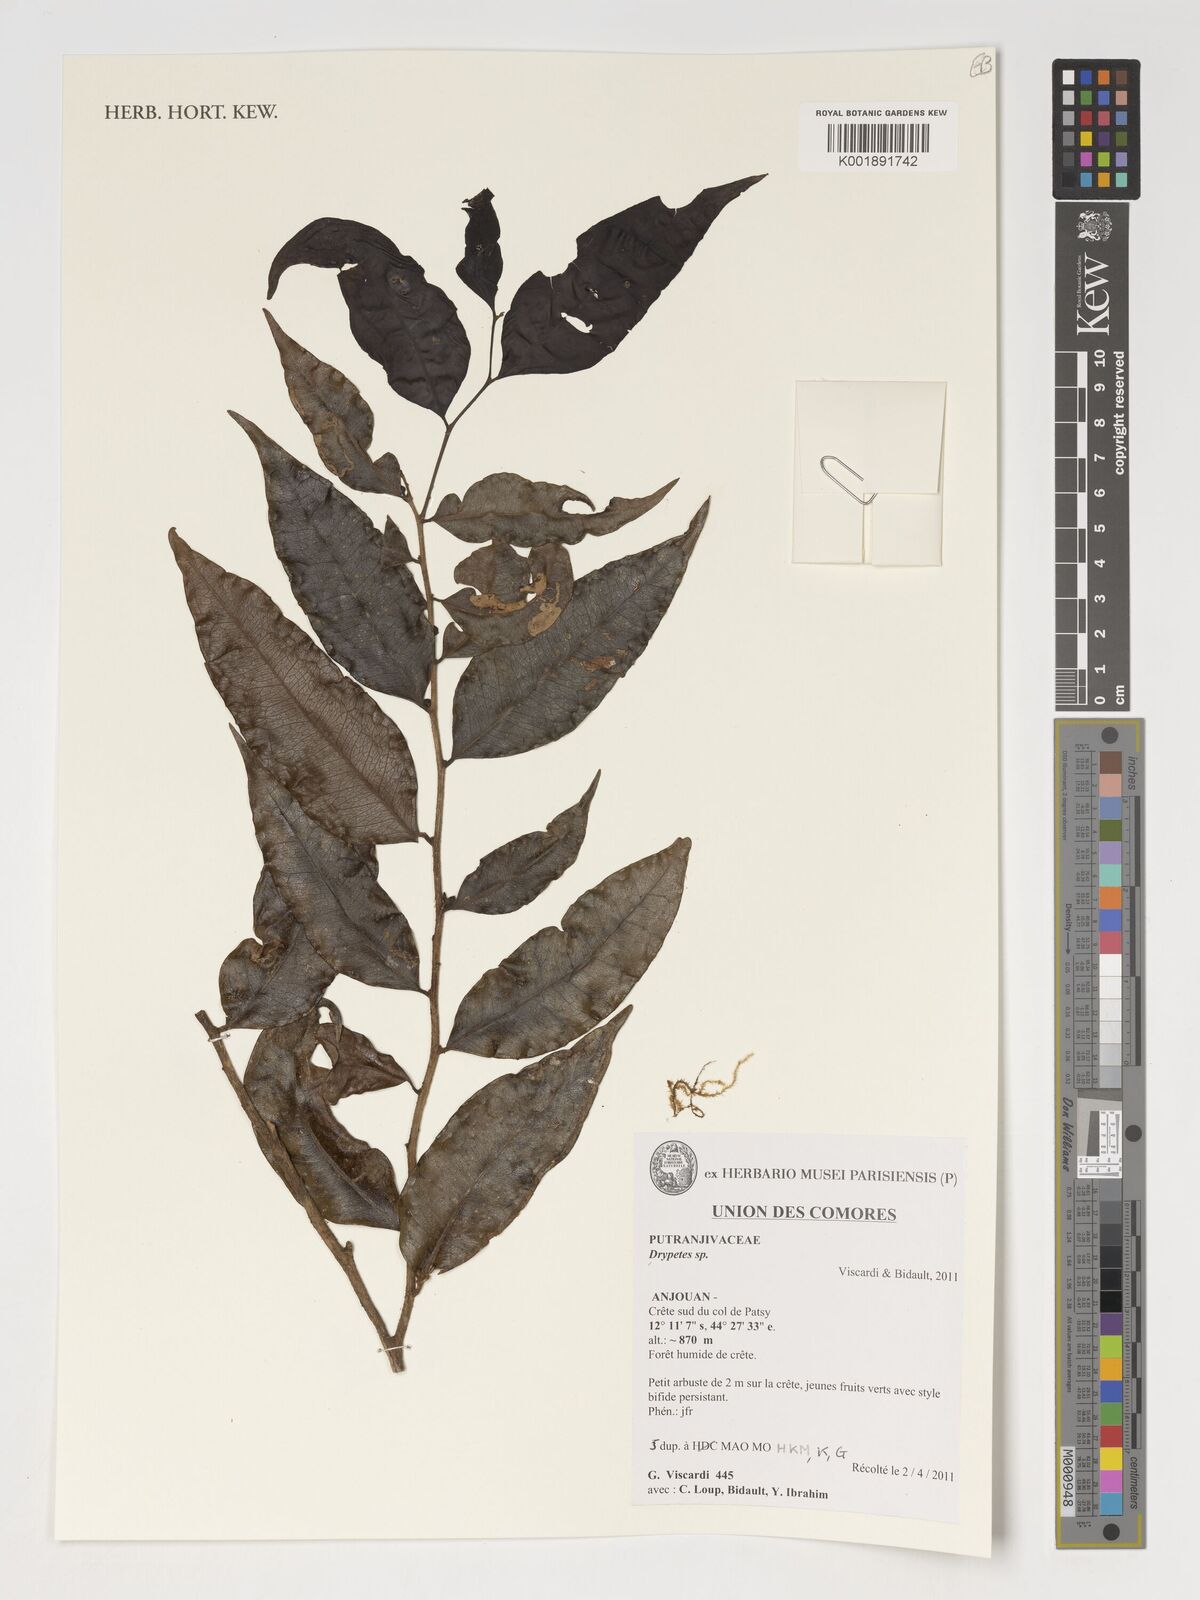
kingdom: Plantae
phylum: Tracheophyta
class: Magnoliopsida
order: Malpighiales
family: Putranjivaceae
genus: Drypetes
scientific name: Drypetes
